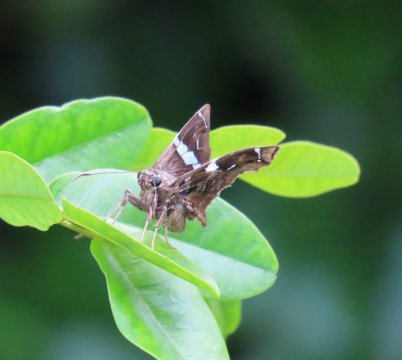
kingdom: Animalia
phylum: Arthropoda
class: Insecta
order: Lepidoptera
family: Hesperiidae
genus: Spathilepia
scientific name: Spathilepia clonius
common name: Falcate Skipper
